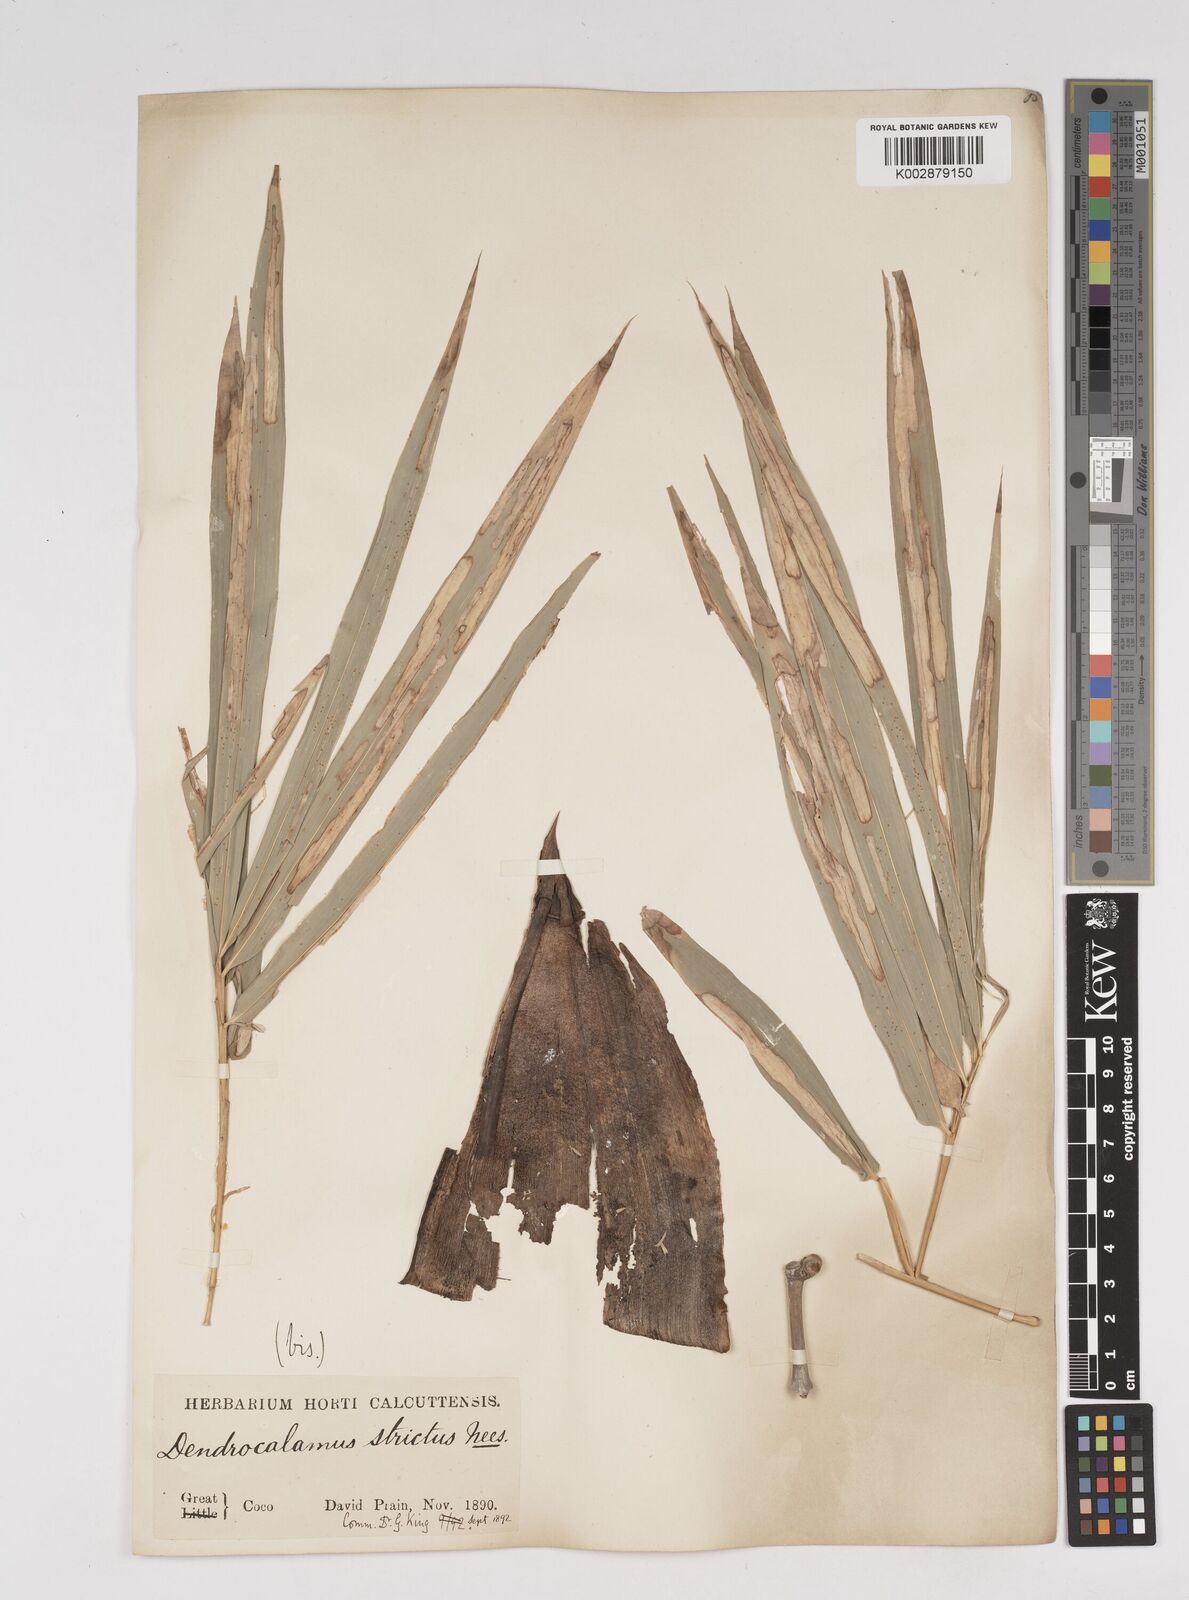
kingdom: Plantae
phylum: Tracheophyta
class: Liliopsida
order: Poales
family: Poaceae
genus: Dendrocalamus
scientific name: Dendrocalamus strictus
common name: Male bamboo
